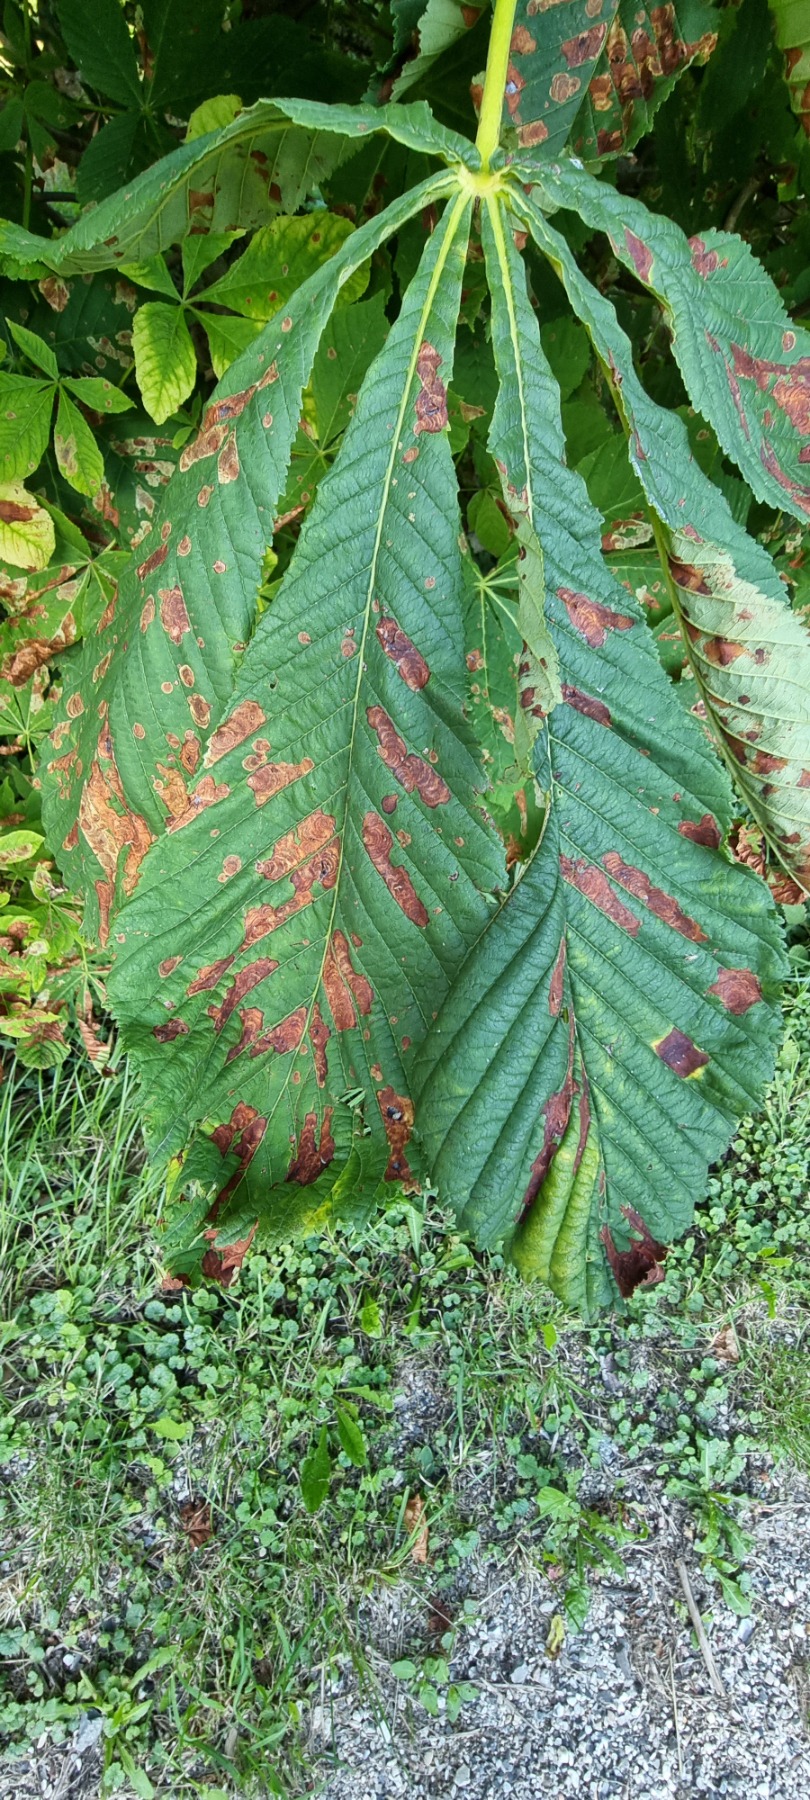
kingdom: Animalia
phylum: Arthropoda
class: Insecta
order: Lepidoptera
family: Gracillariidae
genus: Cameraria
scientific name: Cameraria ohridella
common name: Kastanieminérmøl
